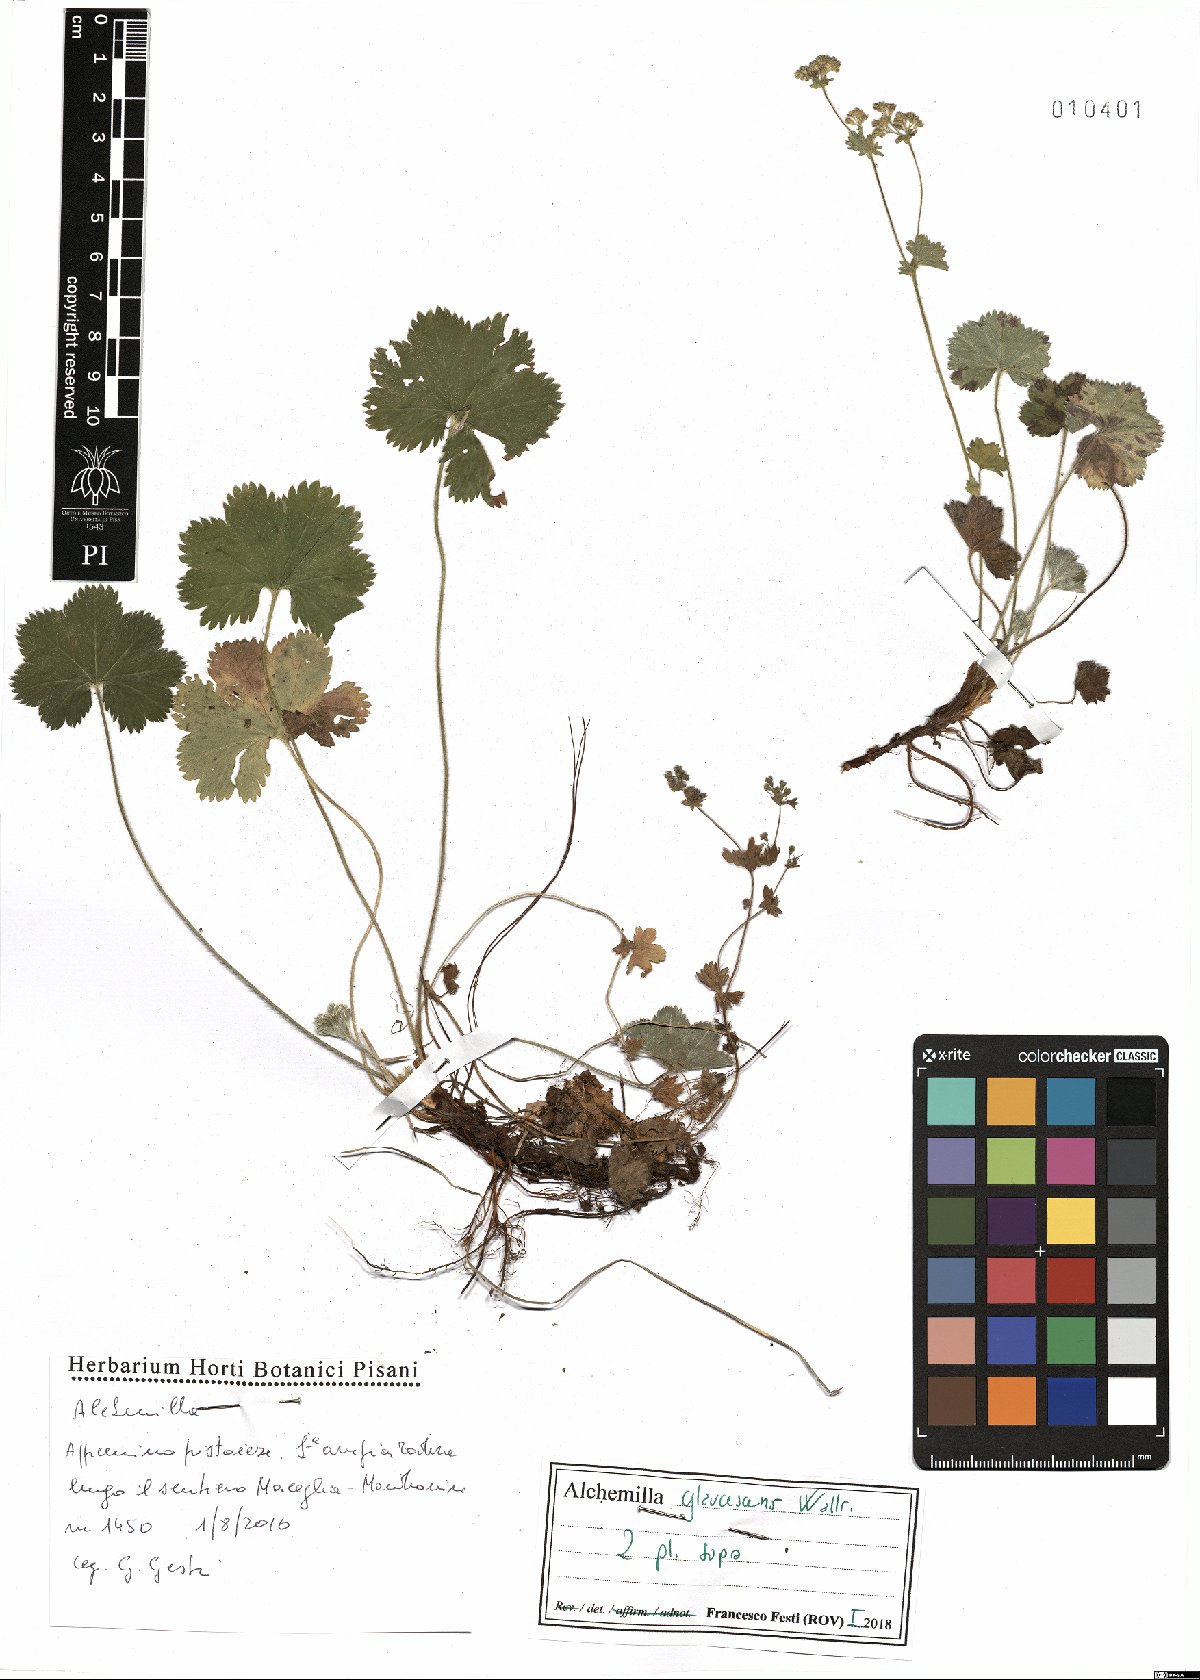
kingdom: Plantae
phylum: Tracheophyta
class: Magnoliopsida
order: Rosales
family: Rosaceae
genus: Alchemilla
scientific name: Alchemilla glaucescens
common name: Silky lady's mantle
